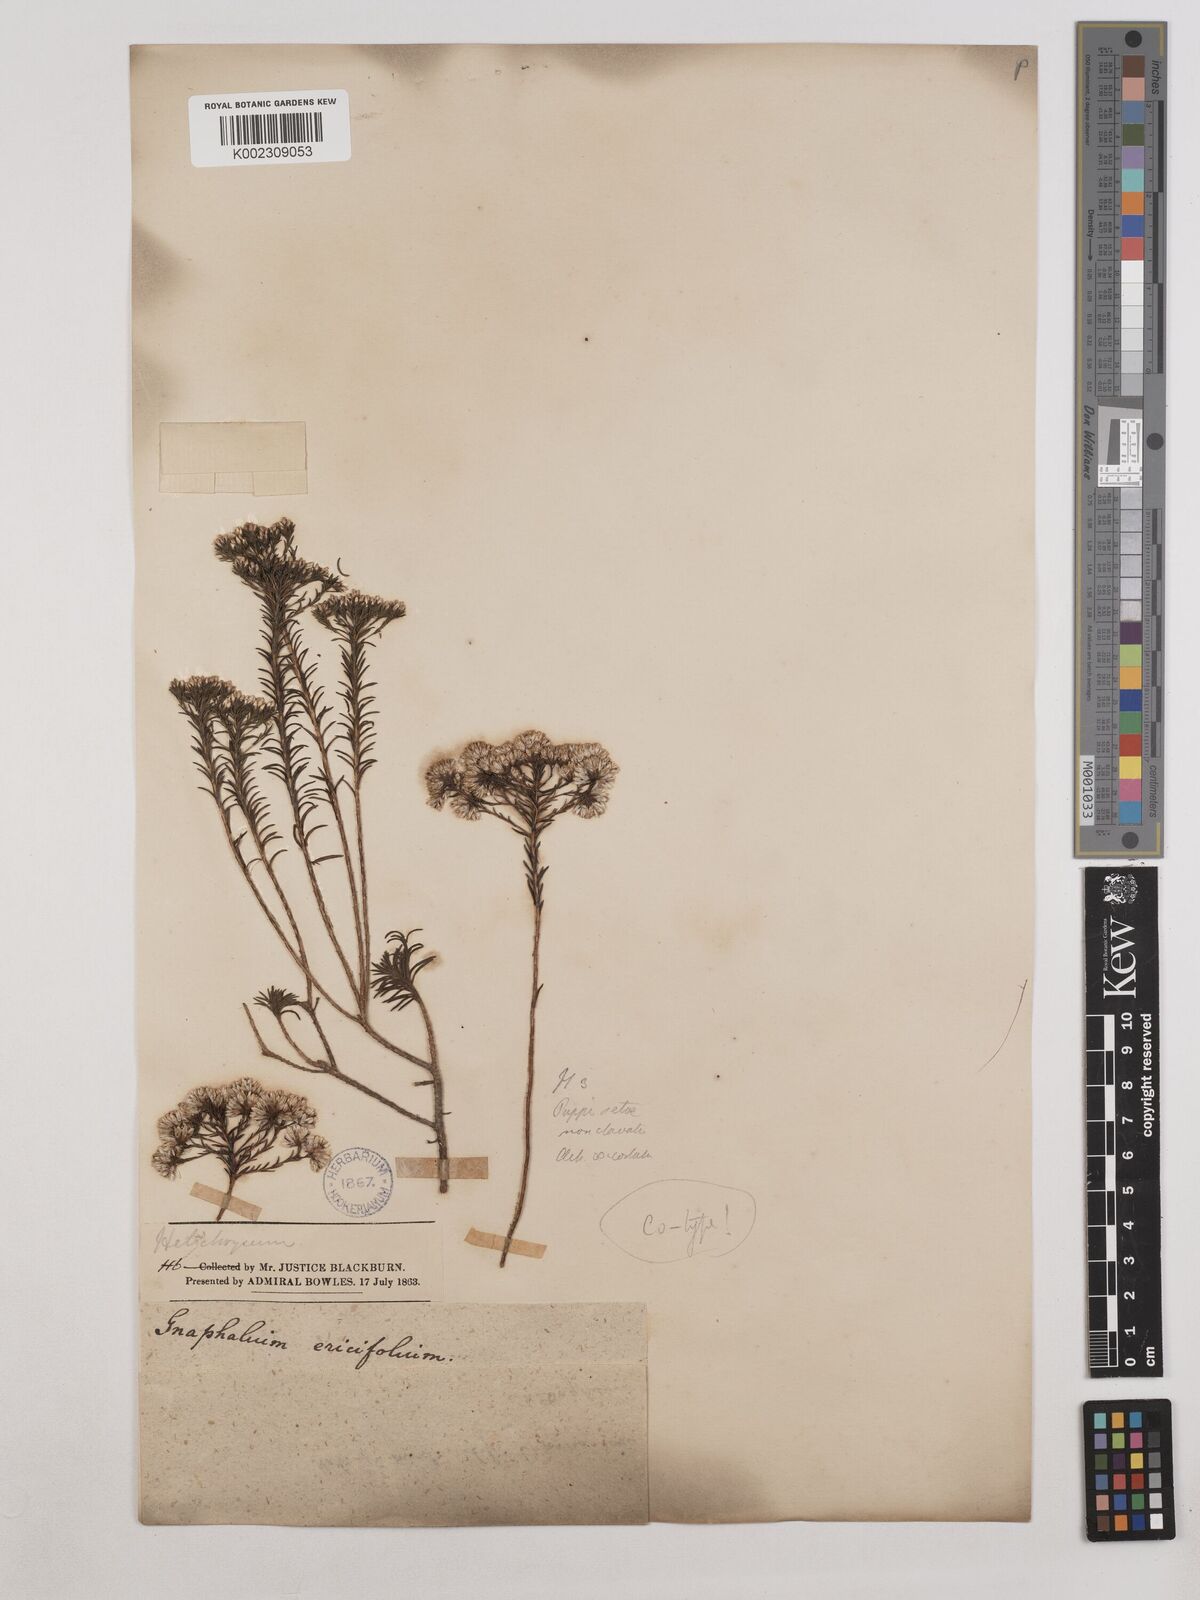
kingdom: Plantae
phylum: Tracheophyta
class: Magnoliopsida
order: Asterales
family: Asteraceae
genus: Stenocline
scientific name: Stenocline ericoides
